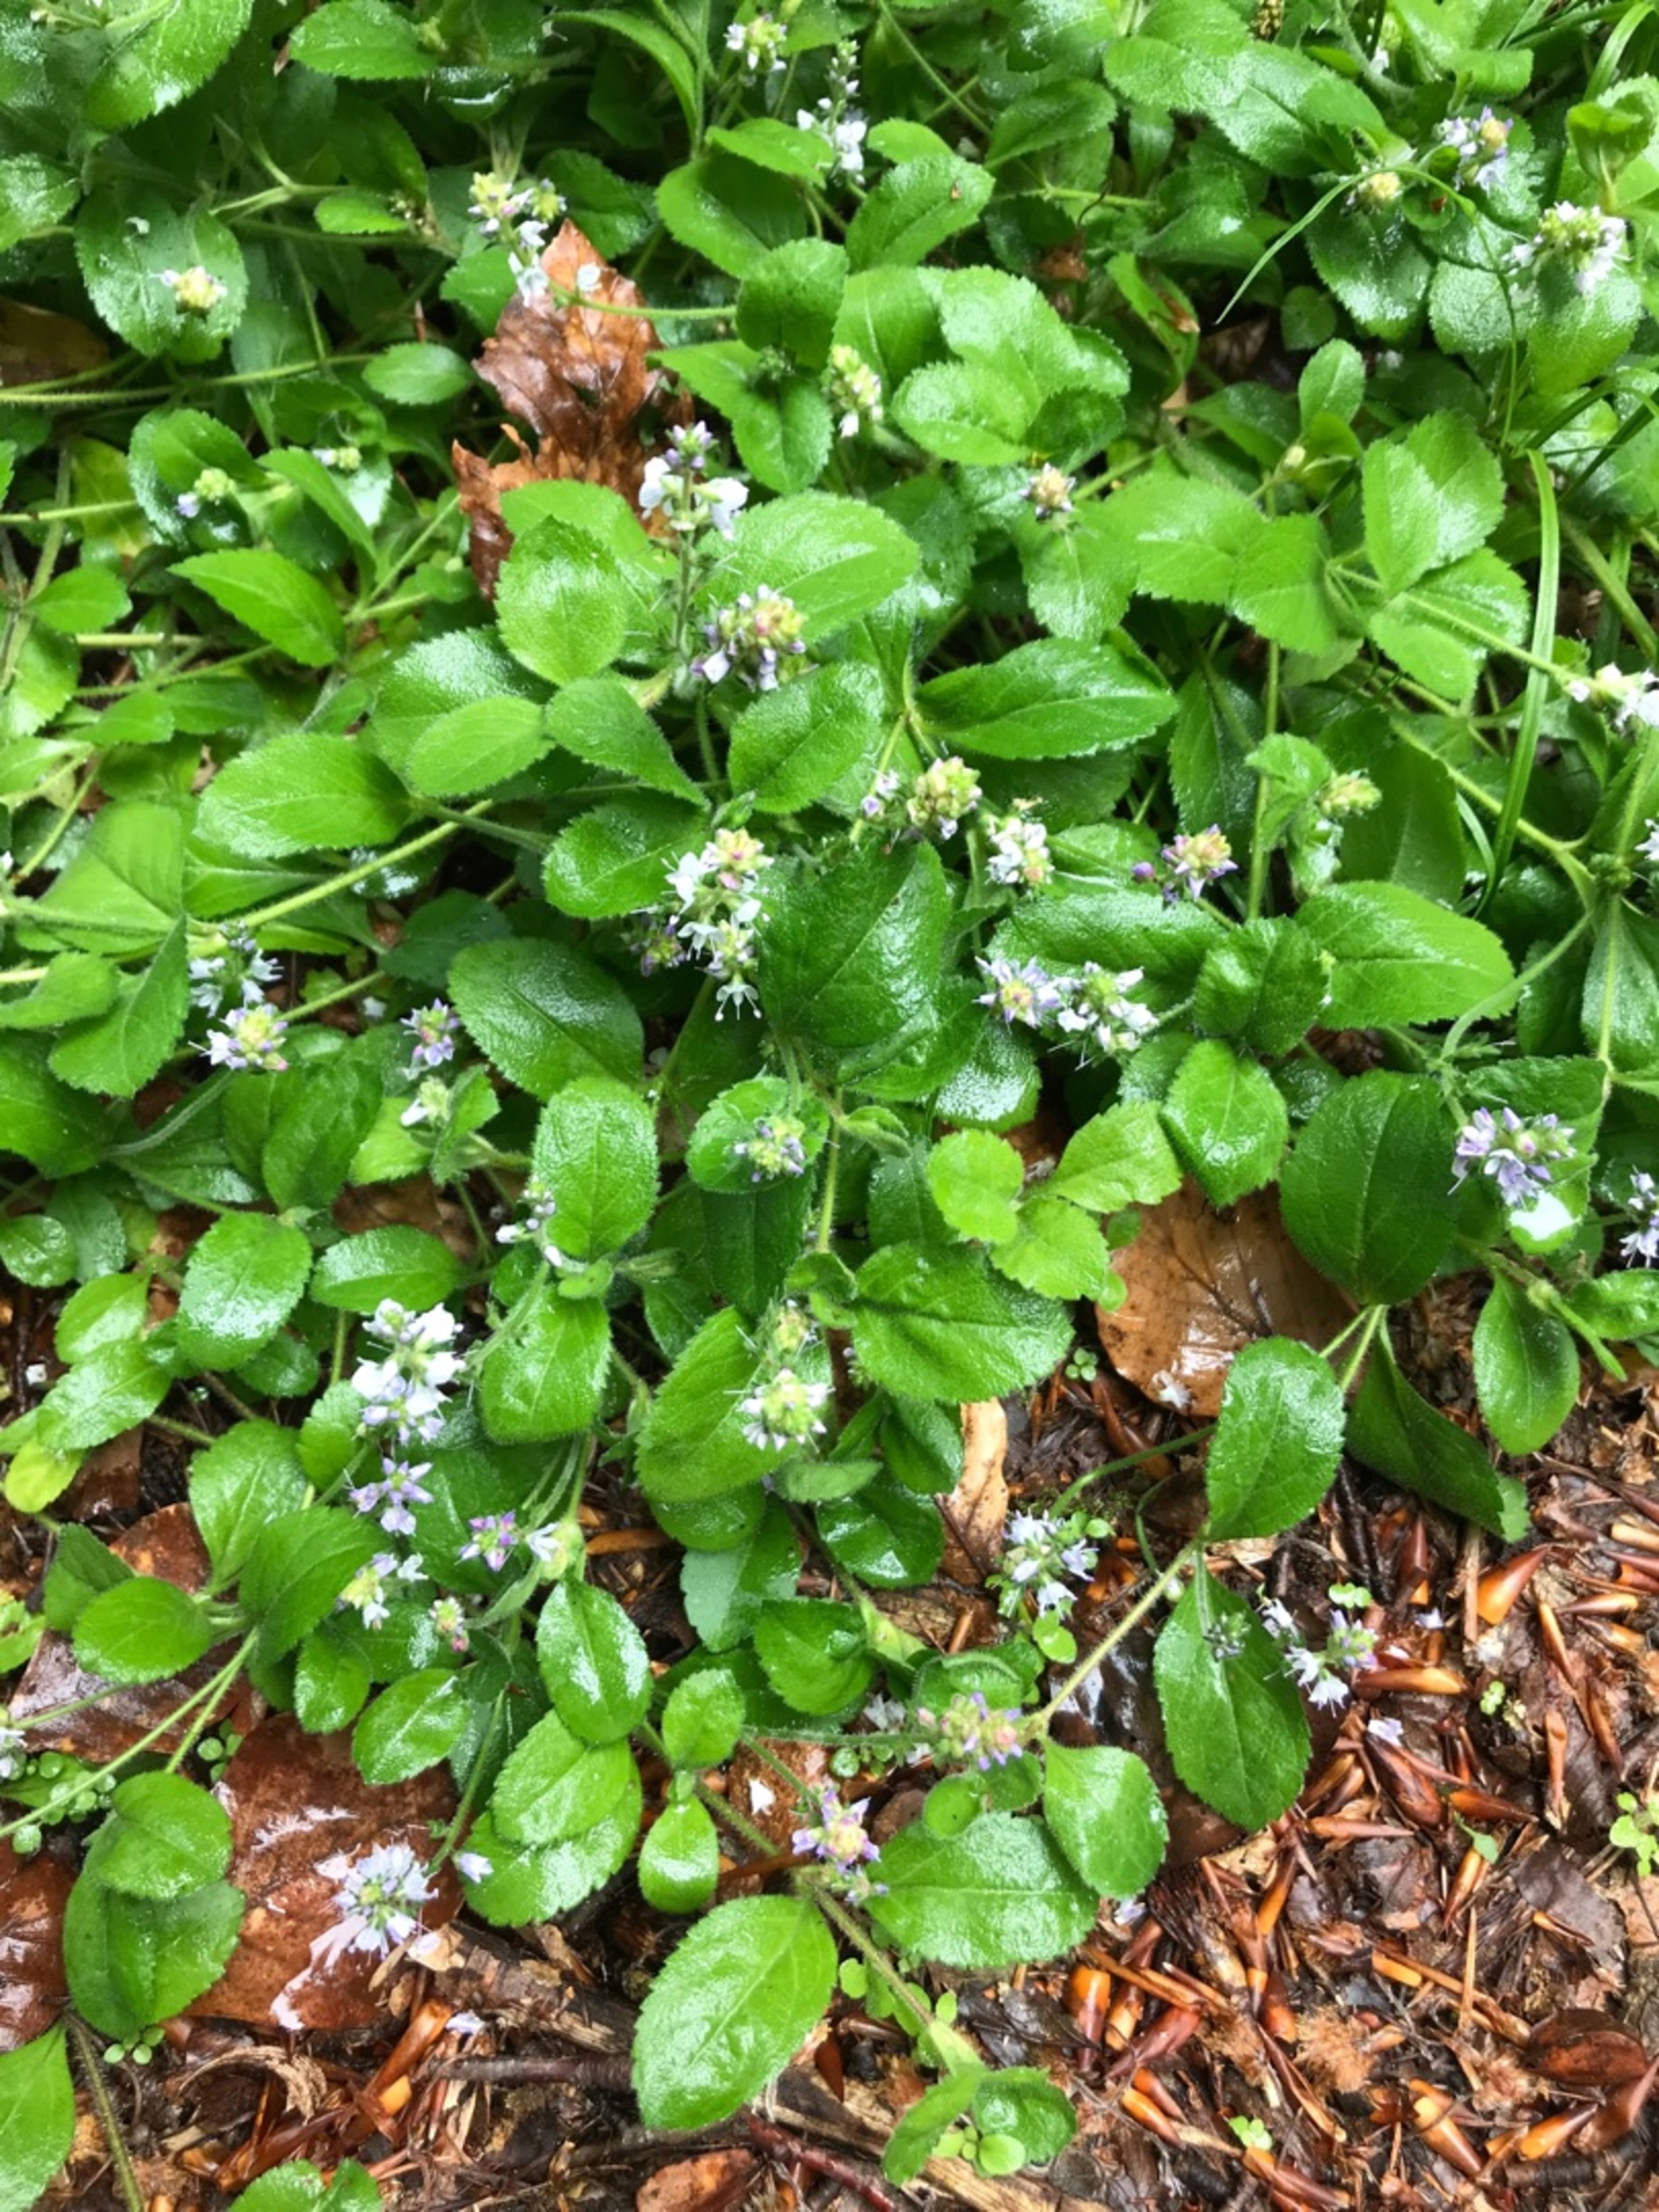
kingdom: Plantae
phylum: Tracheophyta
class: Magnoliopsida
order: Lamiales
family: Plantaginaceae
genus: Veronica
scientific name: Veronica officinalis
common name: Læge-ærenpris
